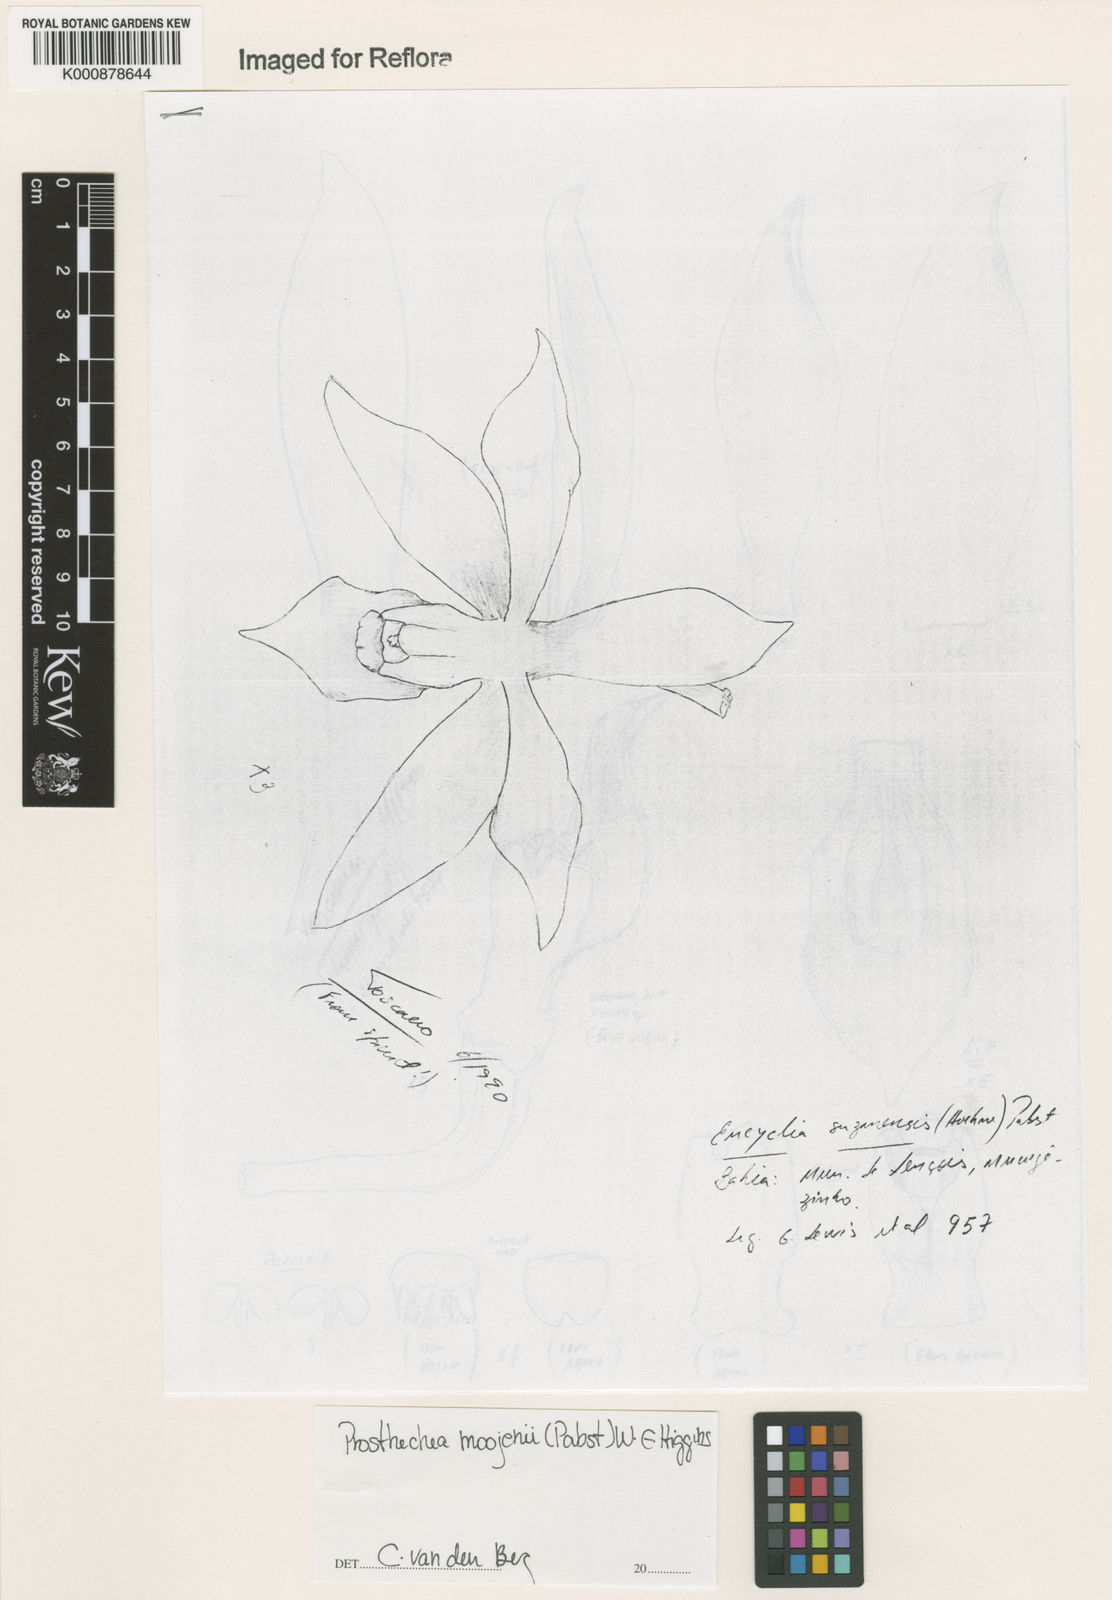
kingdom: Plantae
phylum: Tracheophyta
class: Liliopsida
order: Asparagales
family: Orchidaceae
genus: Prosthechea
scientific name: Prosthechea moojenii
